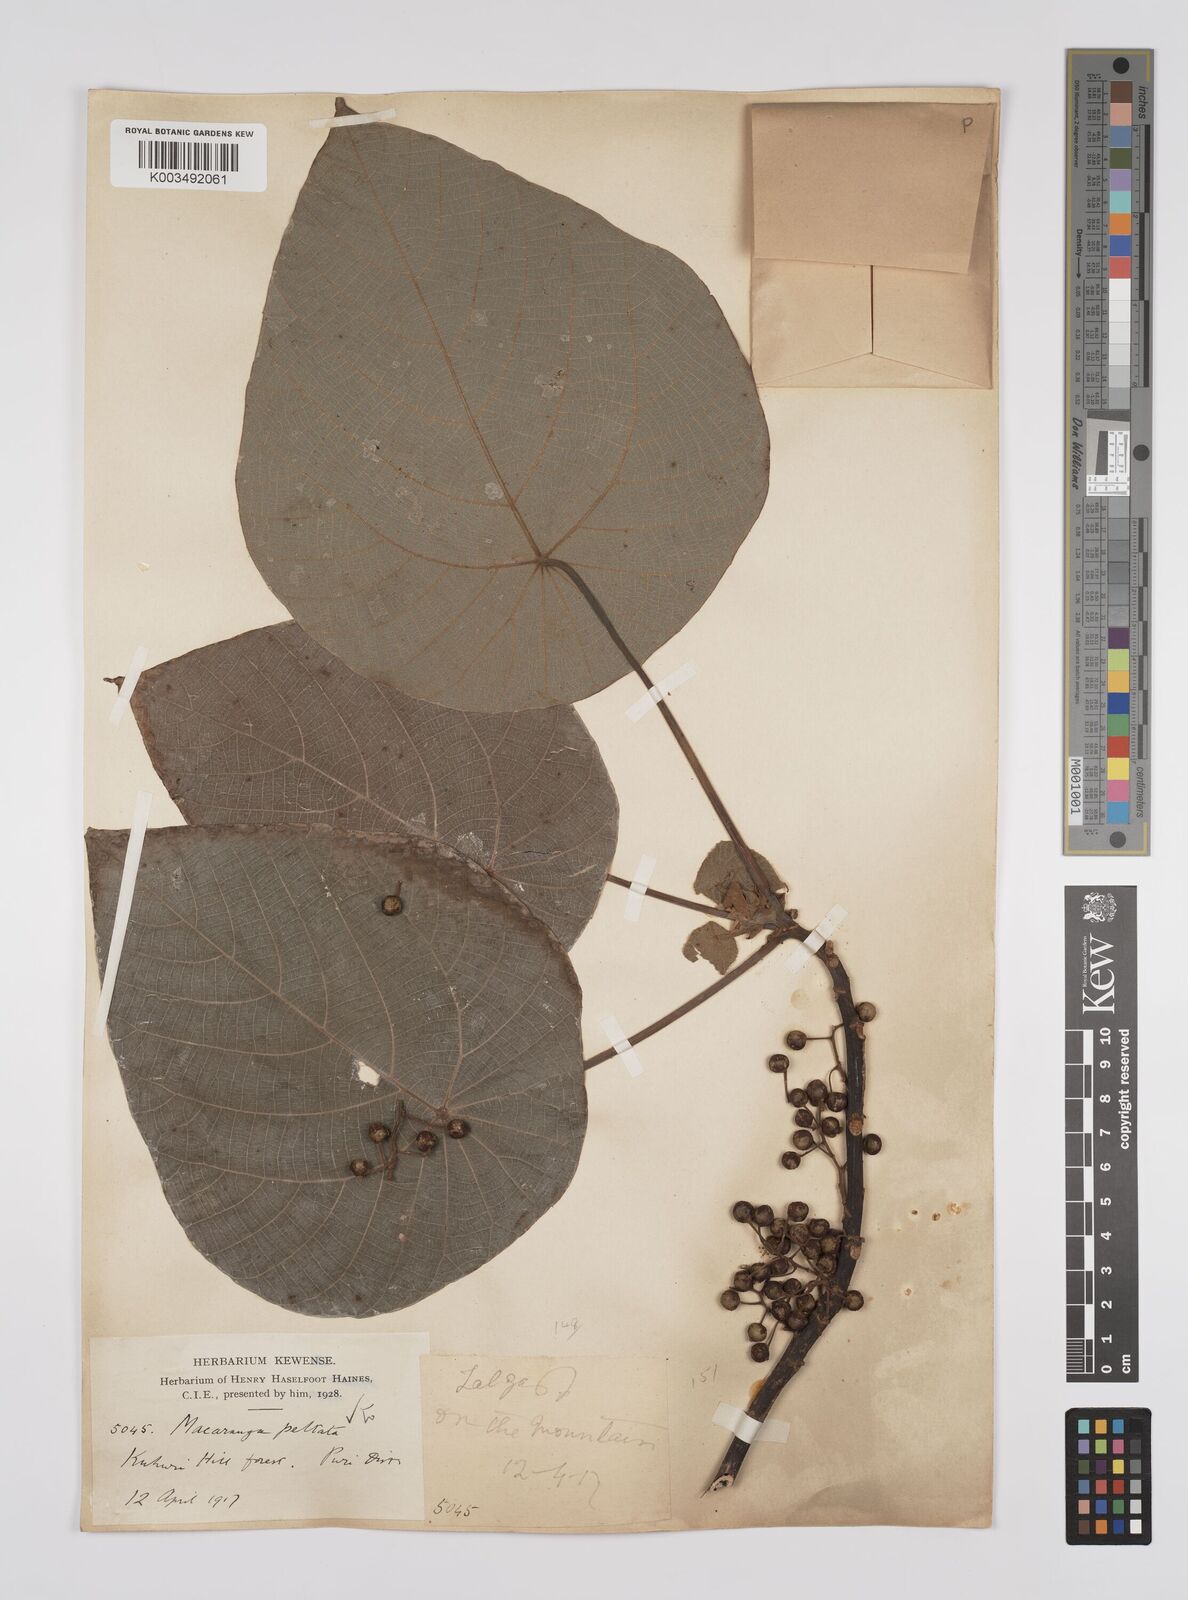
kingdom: Plantae
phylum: Tracheophyta
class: Magnoliopsida
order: Malpighiales
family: Euphorbiaceae
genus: Macaranga
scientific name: Macaranga peltata
